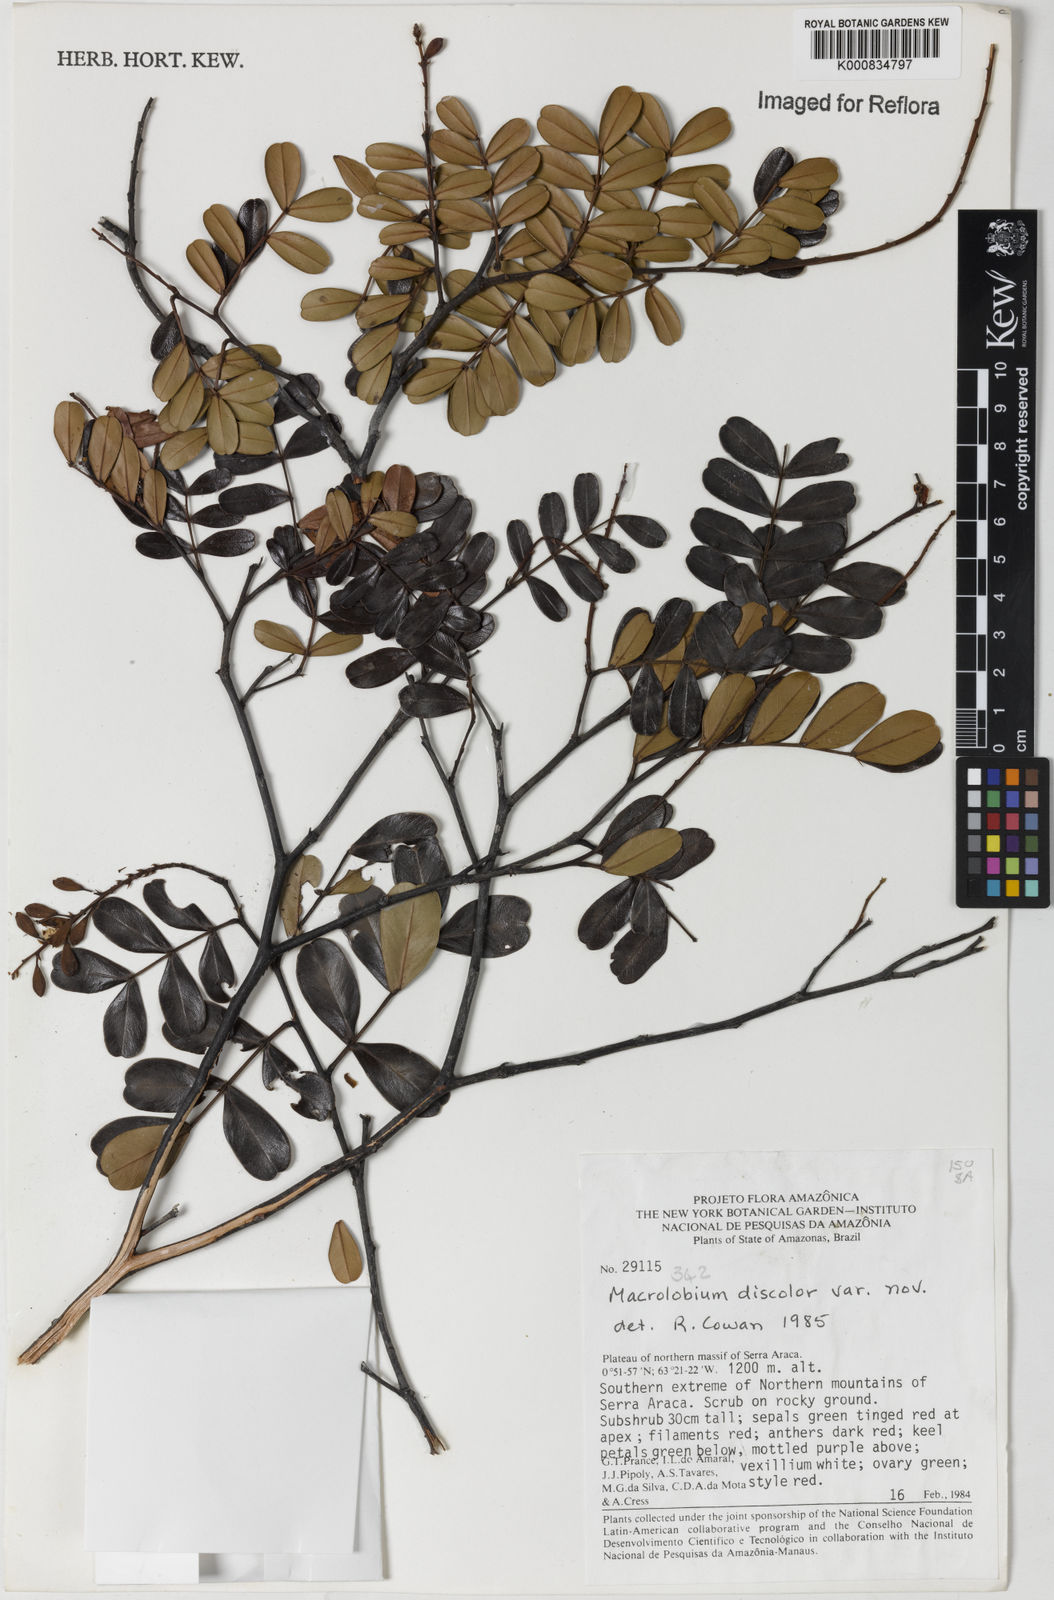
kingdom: Plantae
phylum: Tracheophyta
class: Magnoliopsida
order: Fabales
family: Fabaceae
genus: Macrolobium
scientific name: Macrolobium discolor
